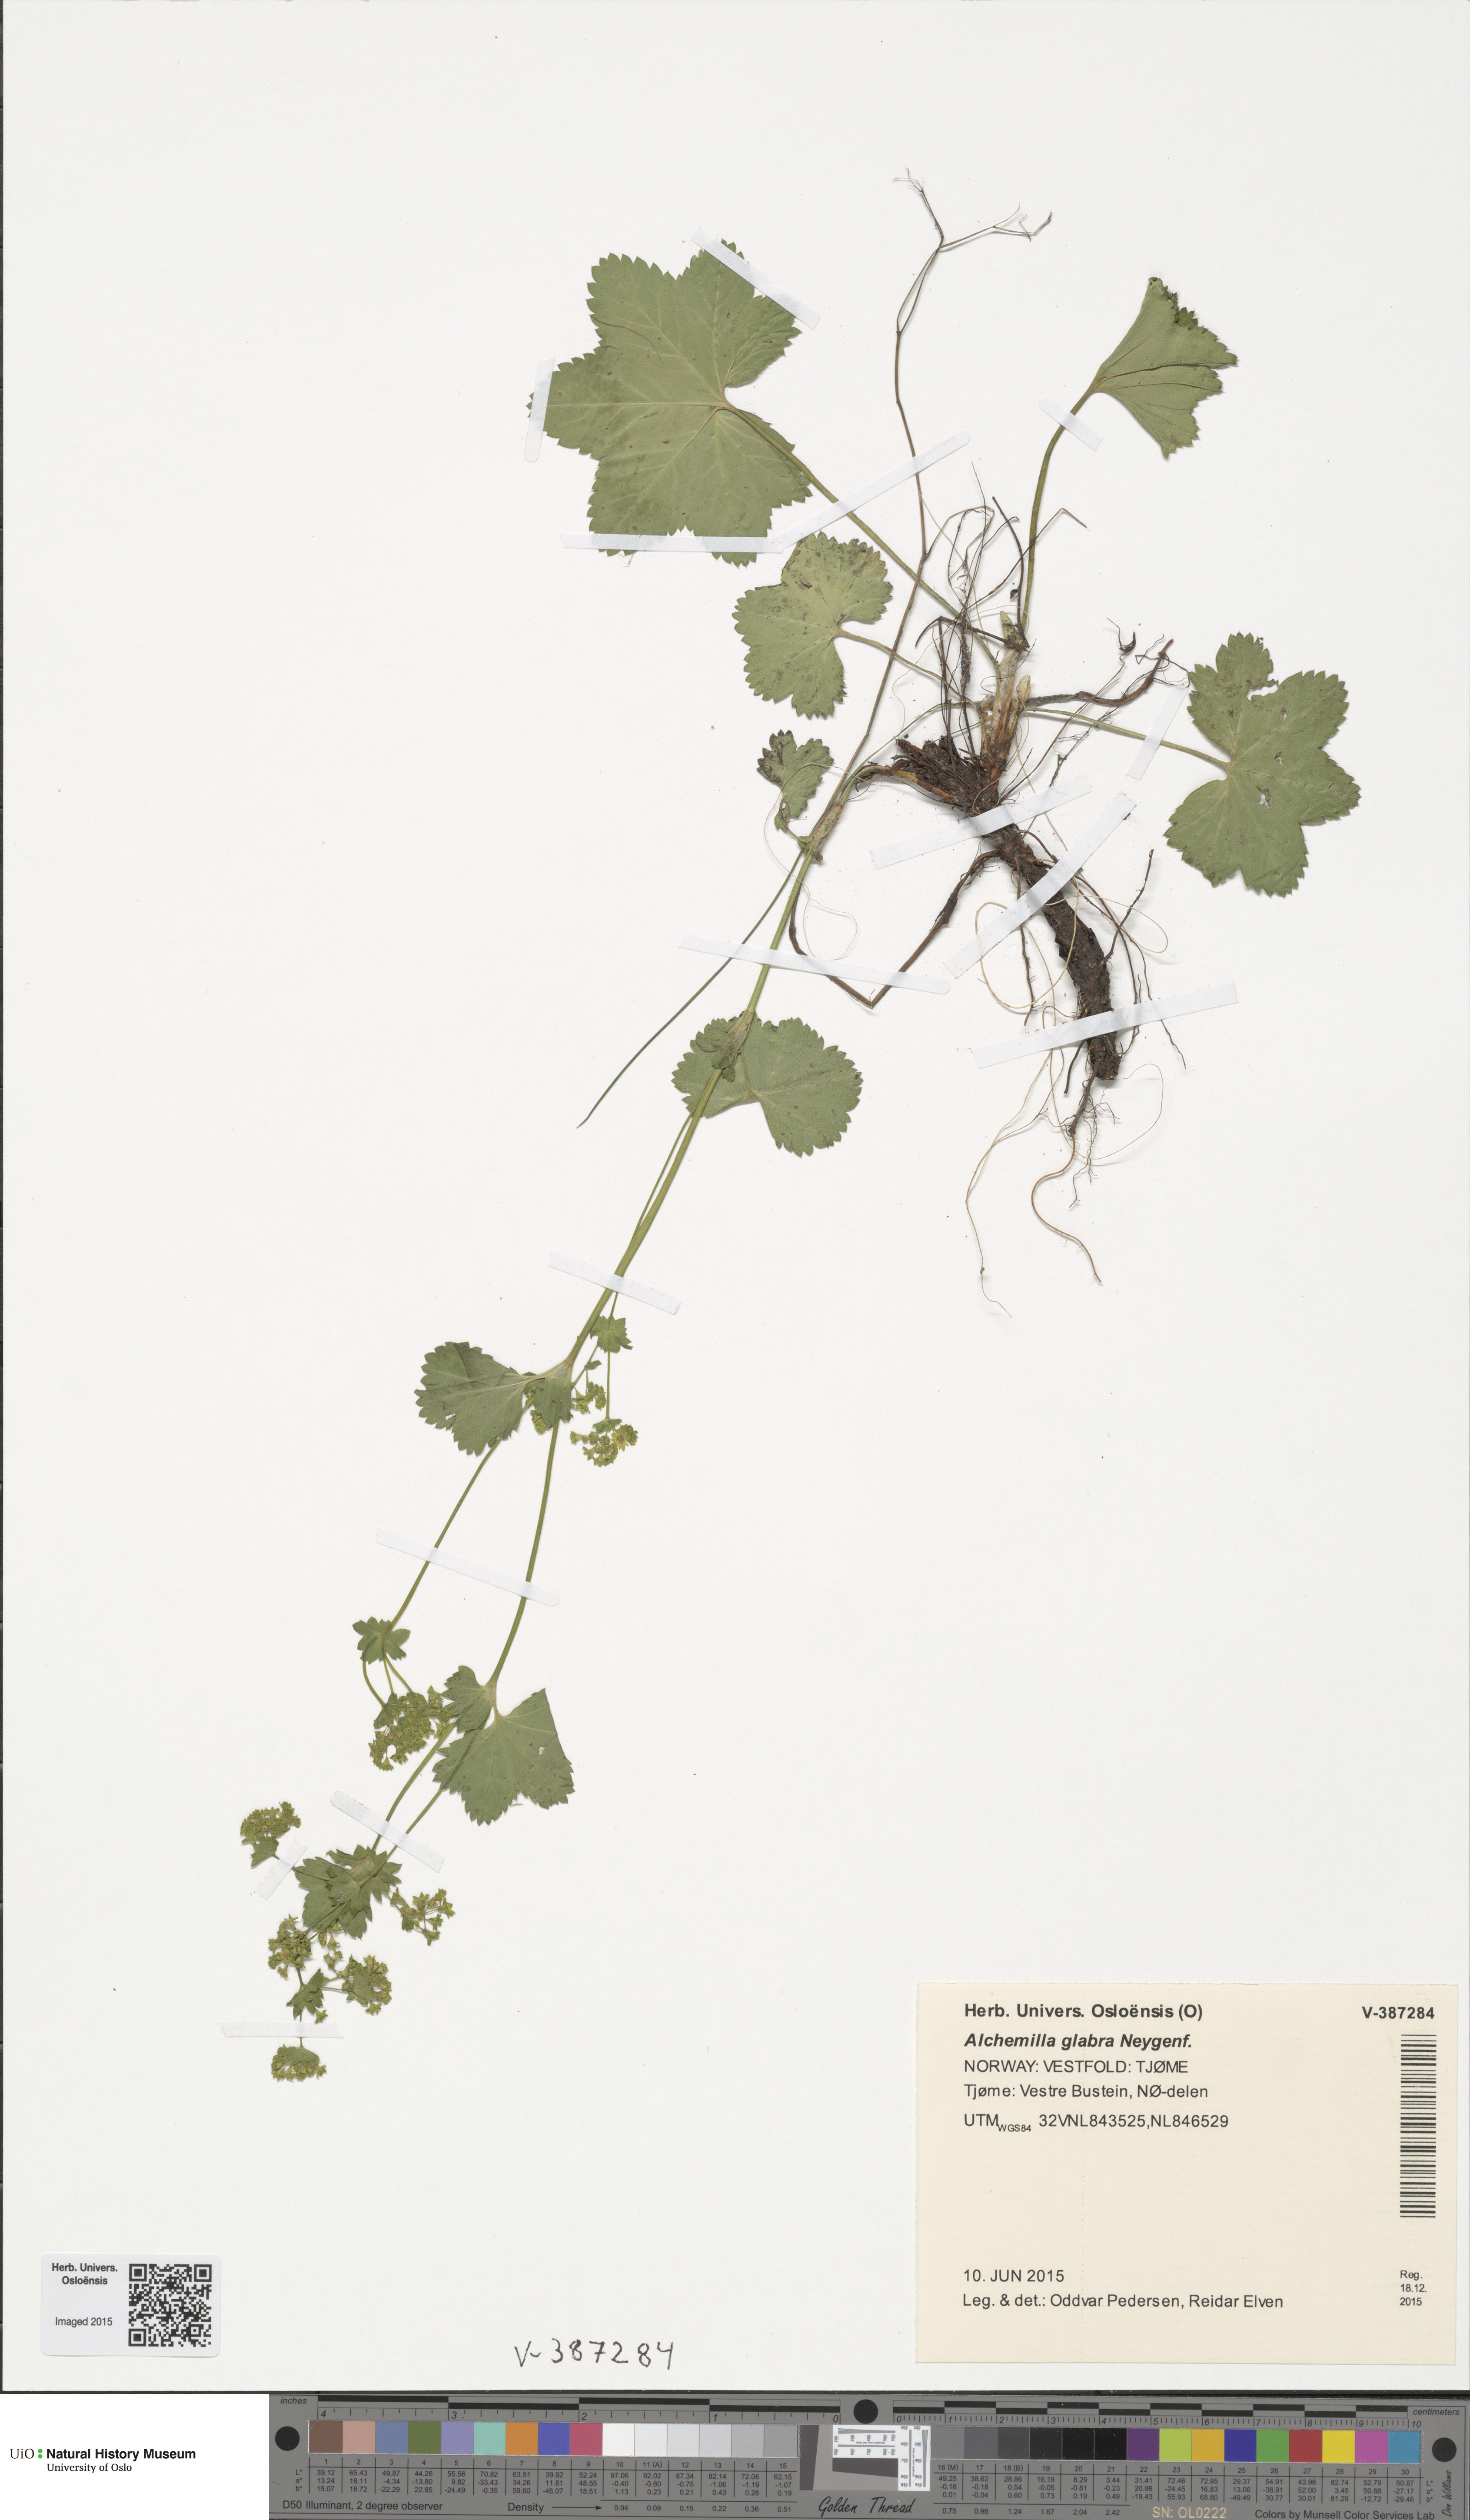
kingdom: Plantae
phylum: Tracheophyta
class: Magnoliopsida
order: Rosales
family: Rosaceae
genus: Alchemilla
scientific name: Alchemilla glabra
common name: Smooth lady's-mantle
